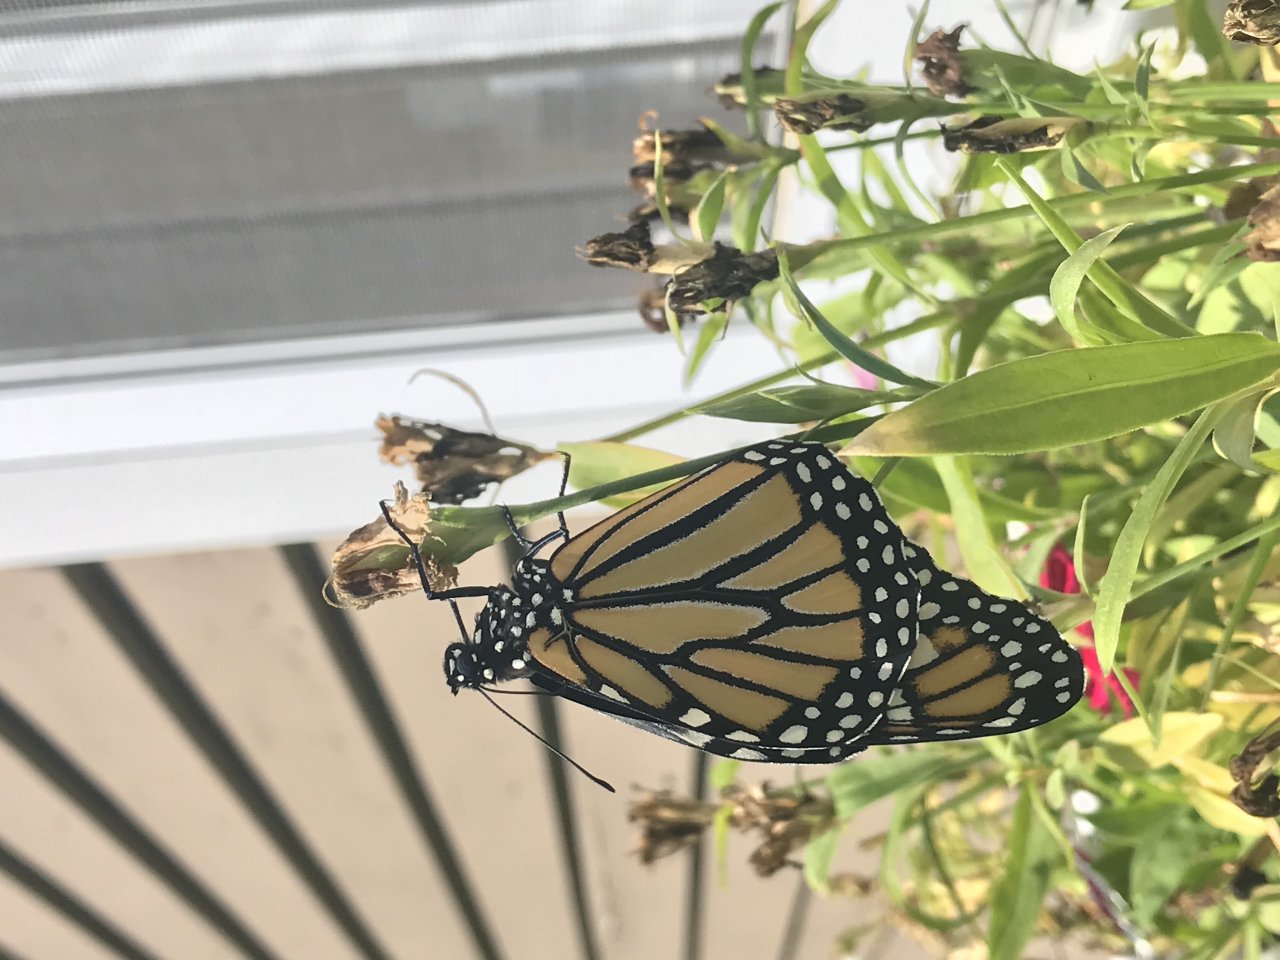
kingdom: Animalia
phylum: Arthropoda
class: Insecta
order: Lepidoptera
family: Nymphalidae
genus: Danaus
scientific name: Danaus plexippus
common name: Monarch
